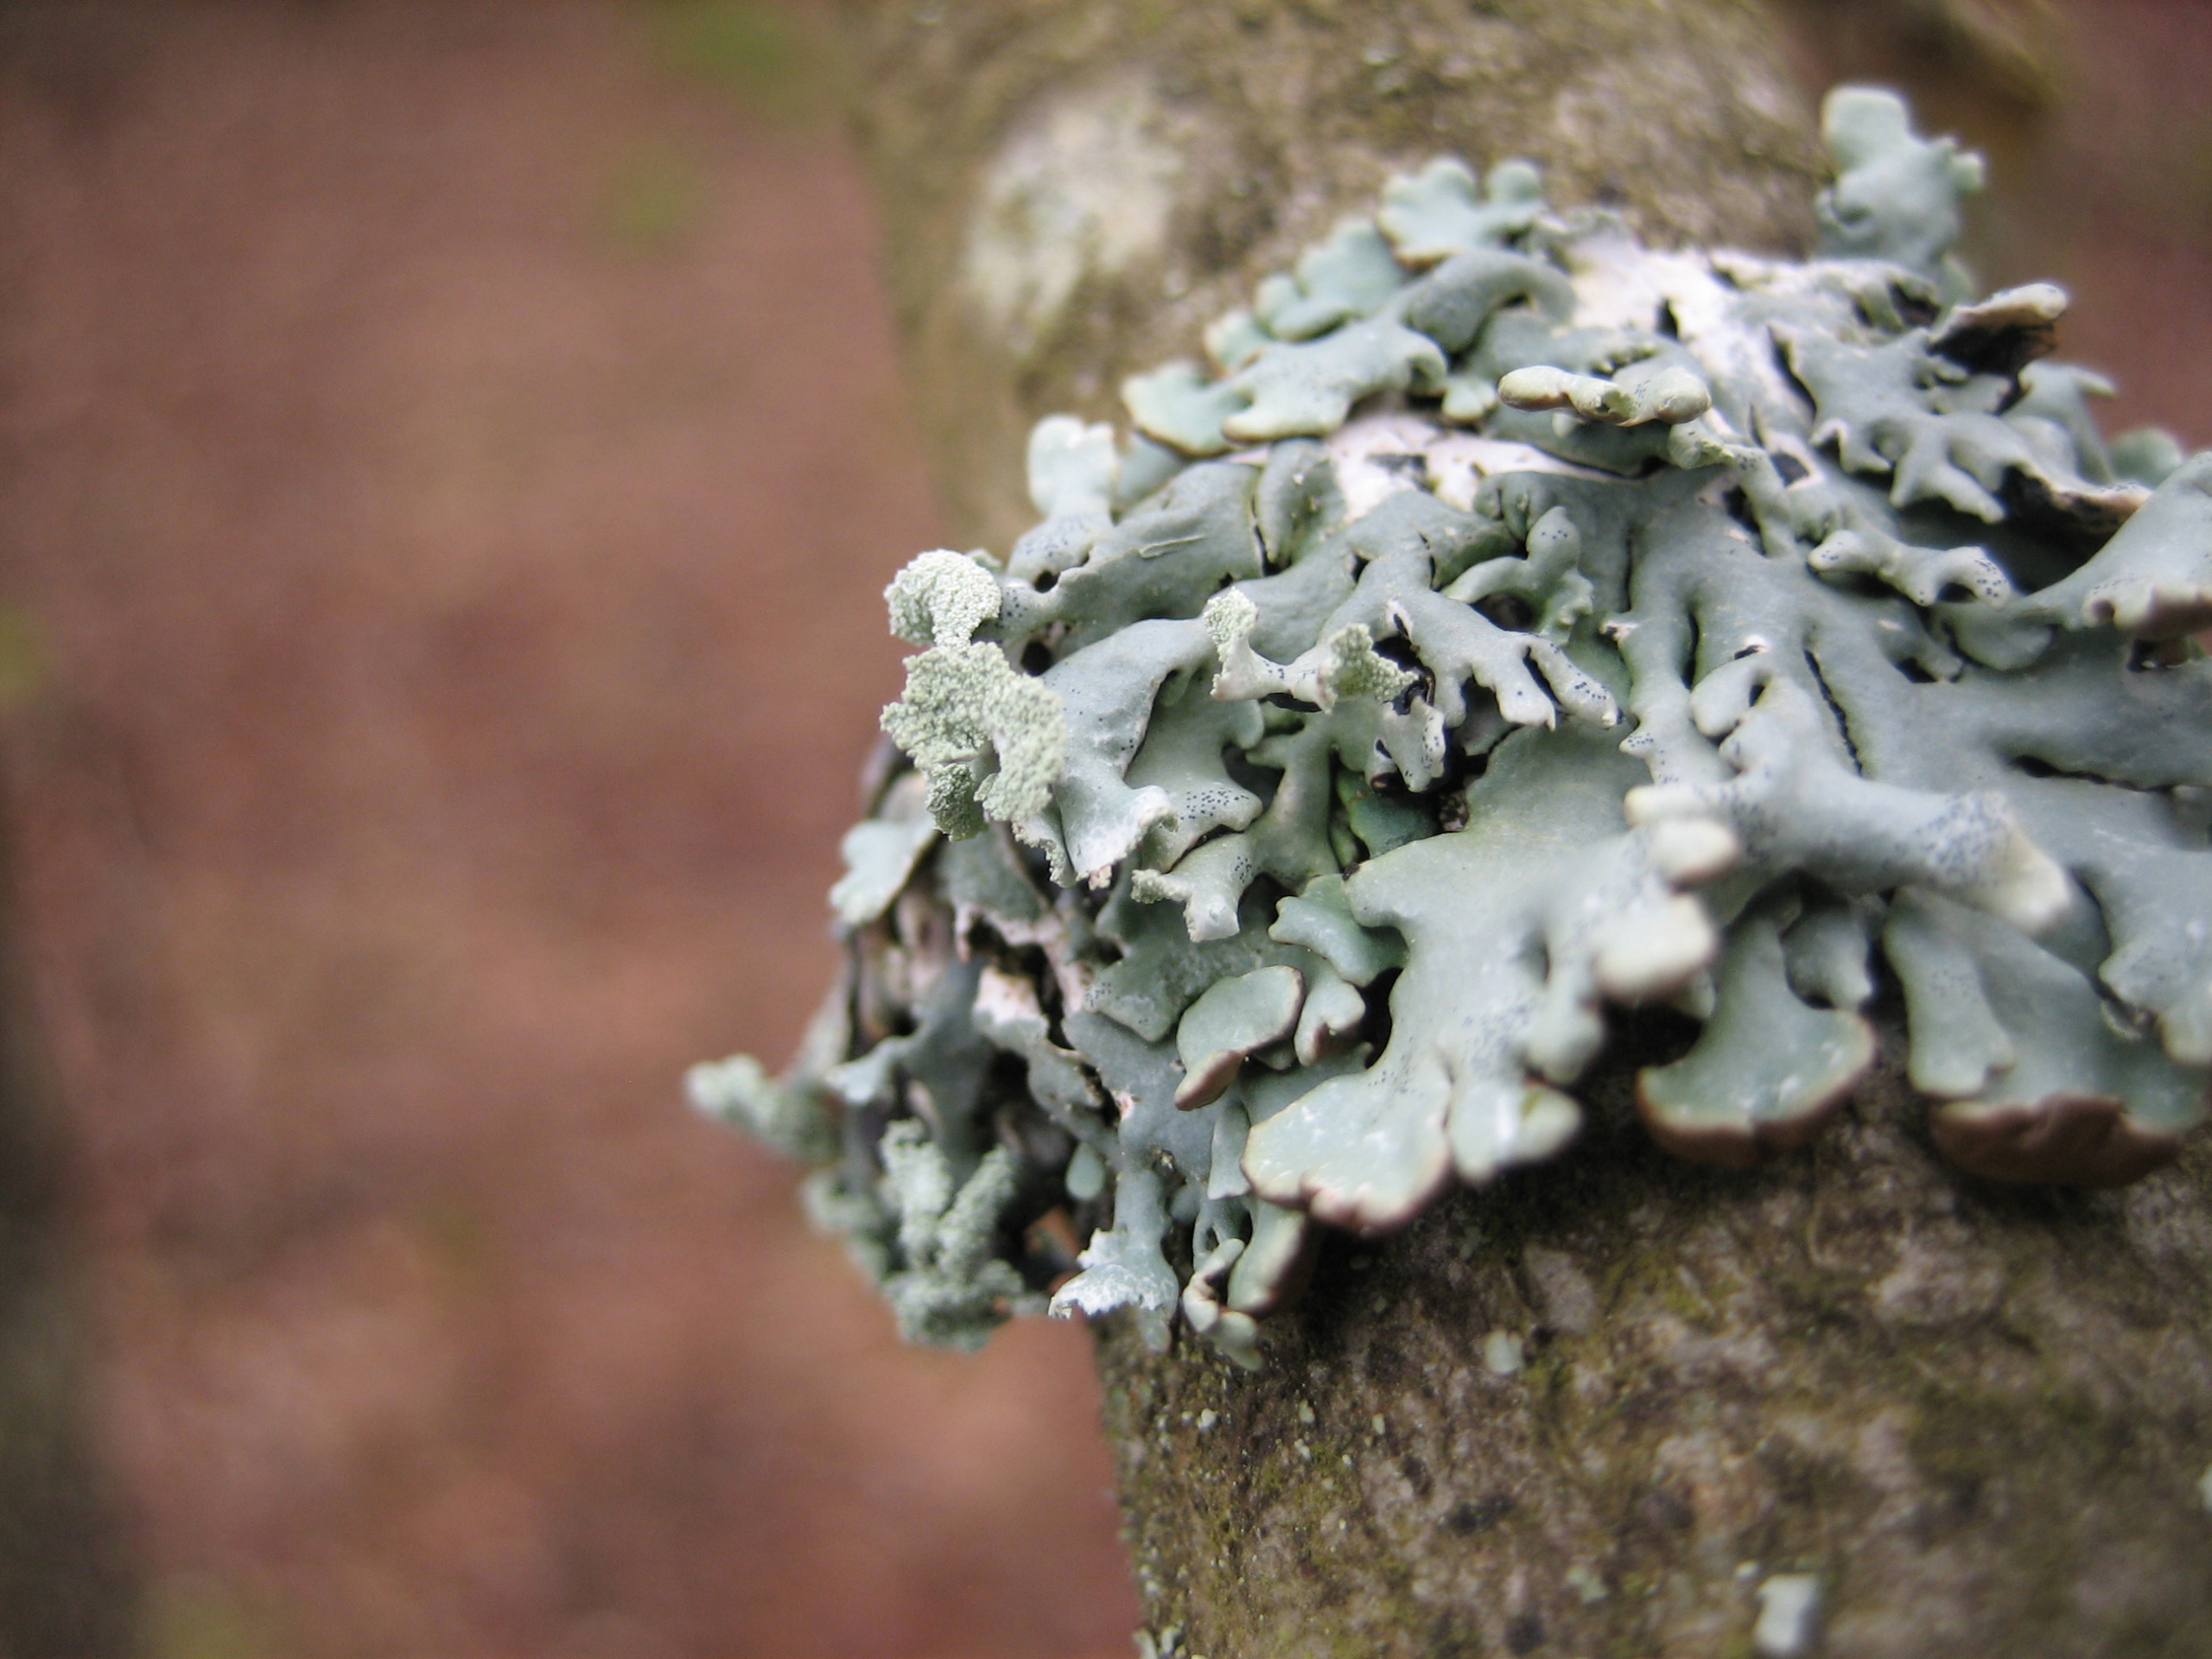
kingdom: Fungi
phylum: Ascomycota
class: Lecanoromycetes
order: Lecanorales
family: Parmeliaceae
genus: Hypogymnia
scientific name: Hypogymnia physodes
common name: Almindelig kvistlav
